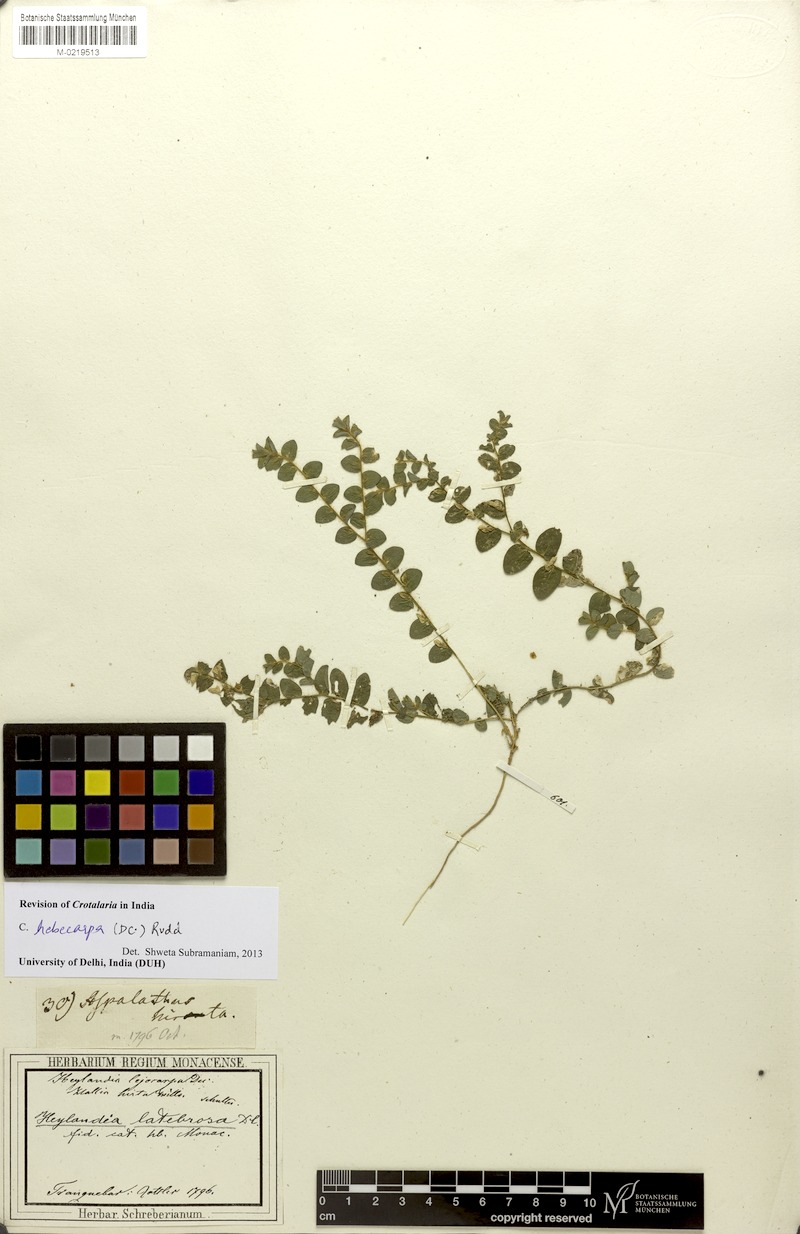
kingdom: Plantae
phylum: Tracheophyta
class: Magnoliopsida
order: Fabales
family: Fabaceae
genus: Crotalaria
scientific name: Crotalaria hebecarpa
